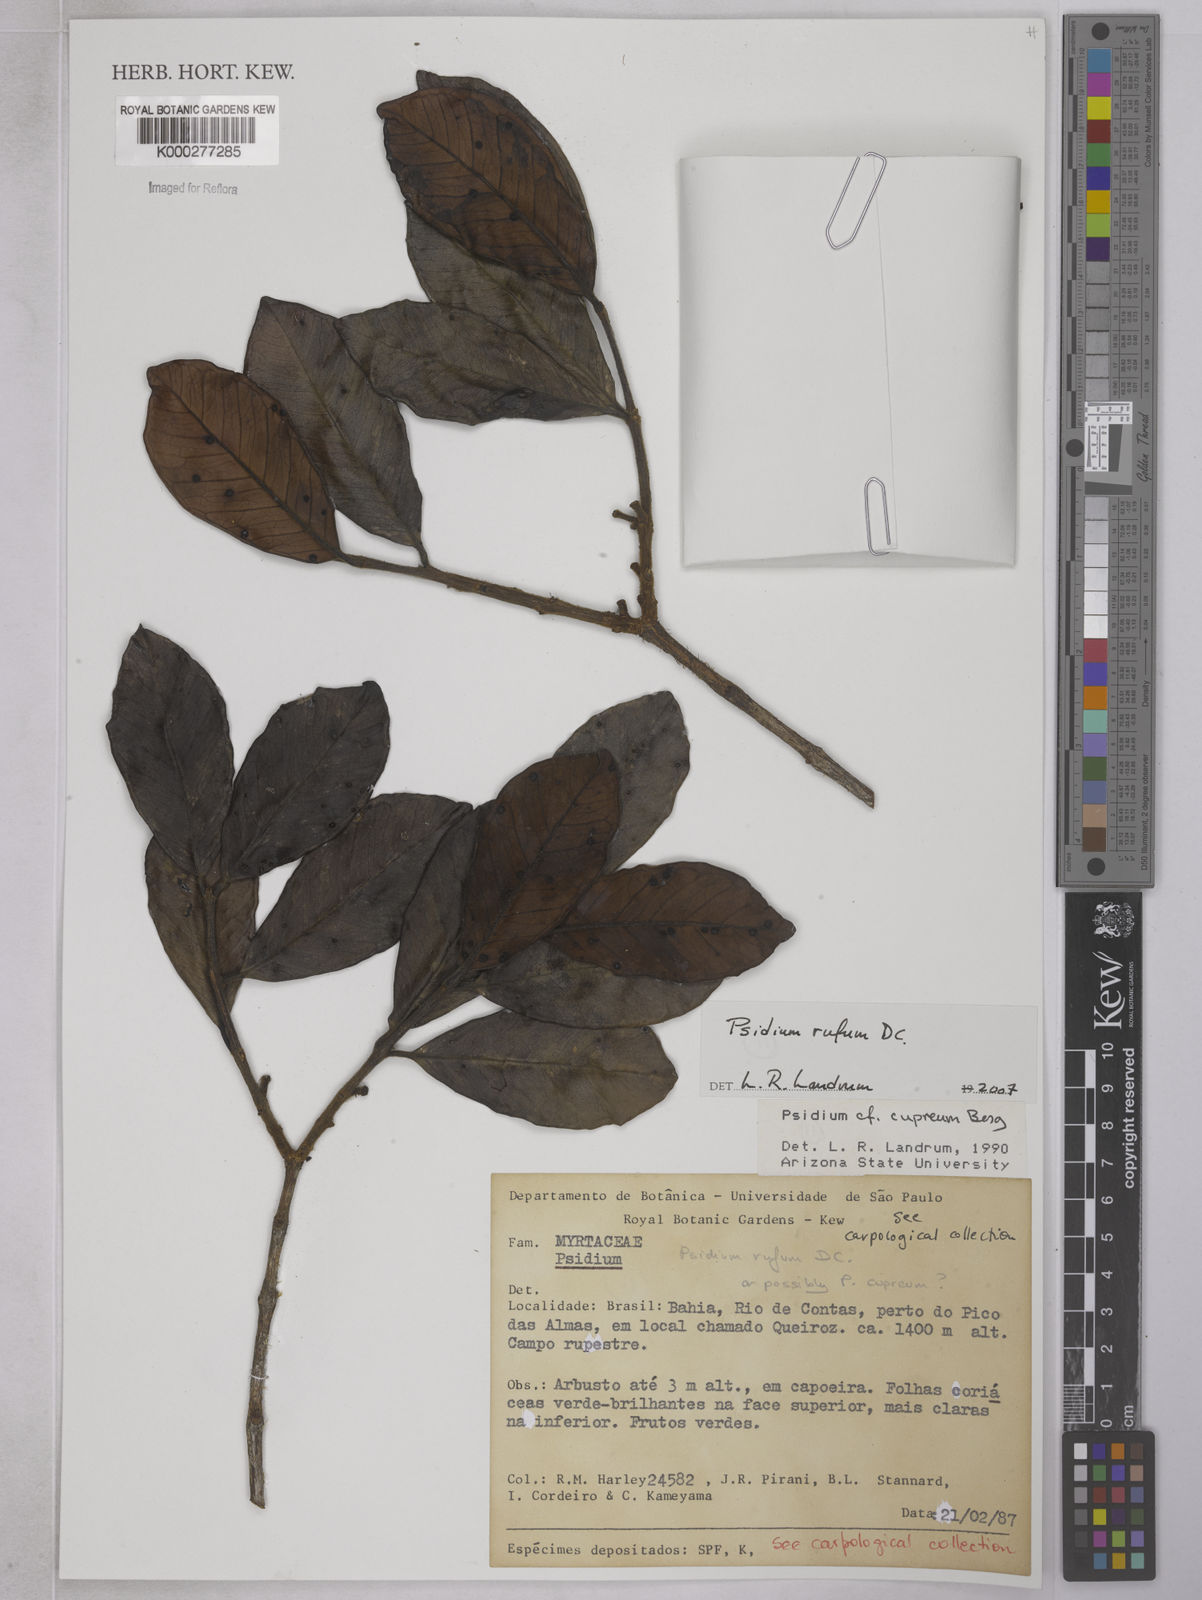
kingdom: Plantae
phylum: Tracheophyta
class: Magnoliopsida
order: Myrtales
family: Myrtaceae
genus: Psidium
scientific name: Psidium rufum
